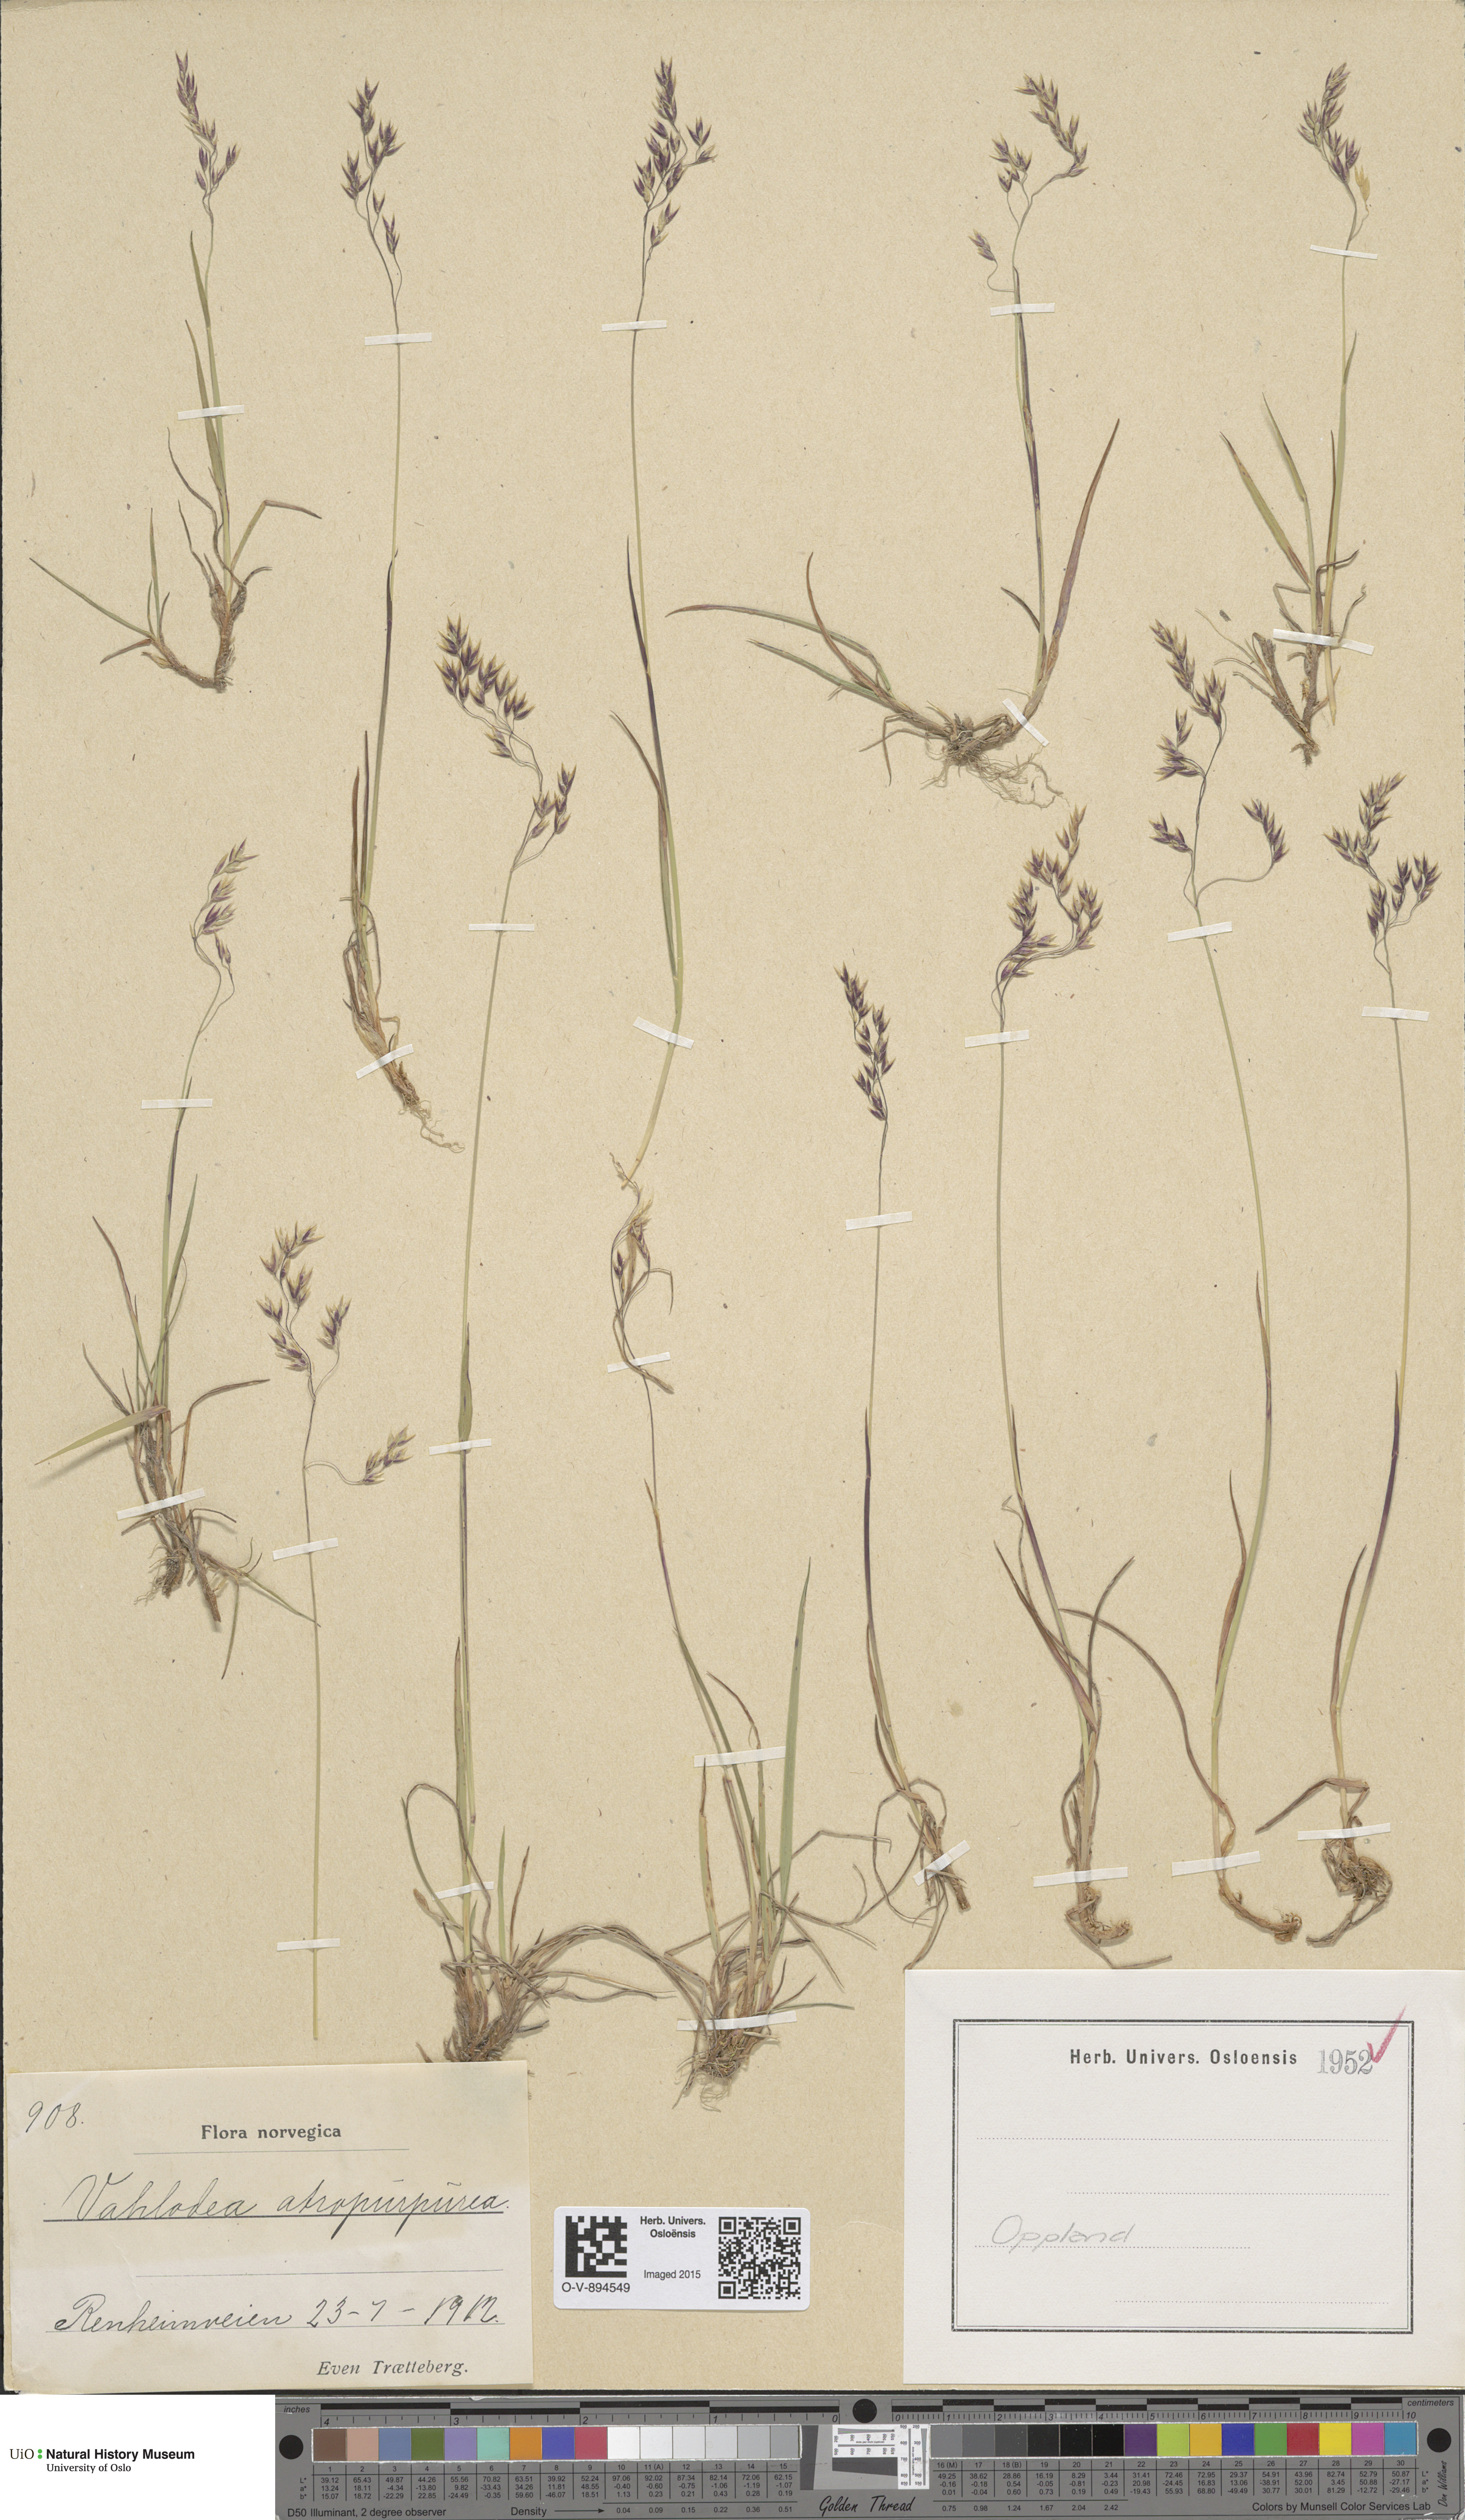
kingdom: Plantae
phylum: Tracheophyta
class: Liliopsida
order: Poales
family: Poaceae
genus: Vahlodea
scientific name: Vahlodea atropurpurea
